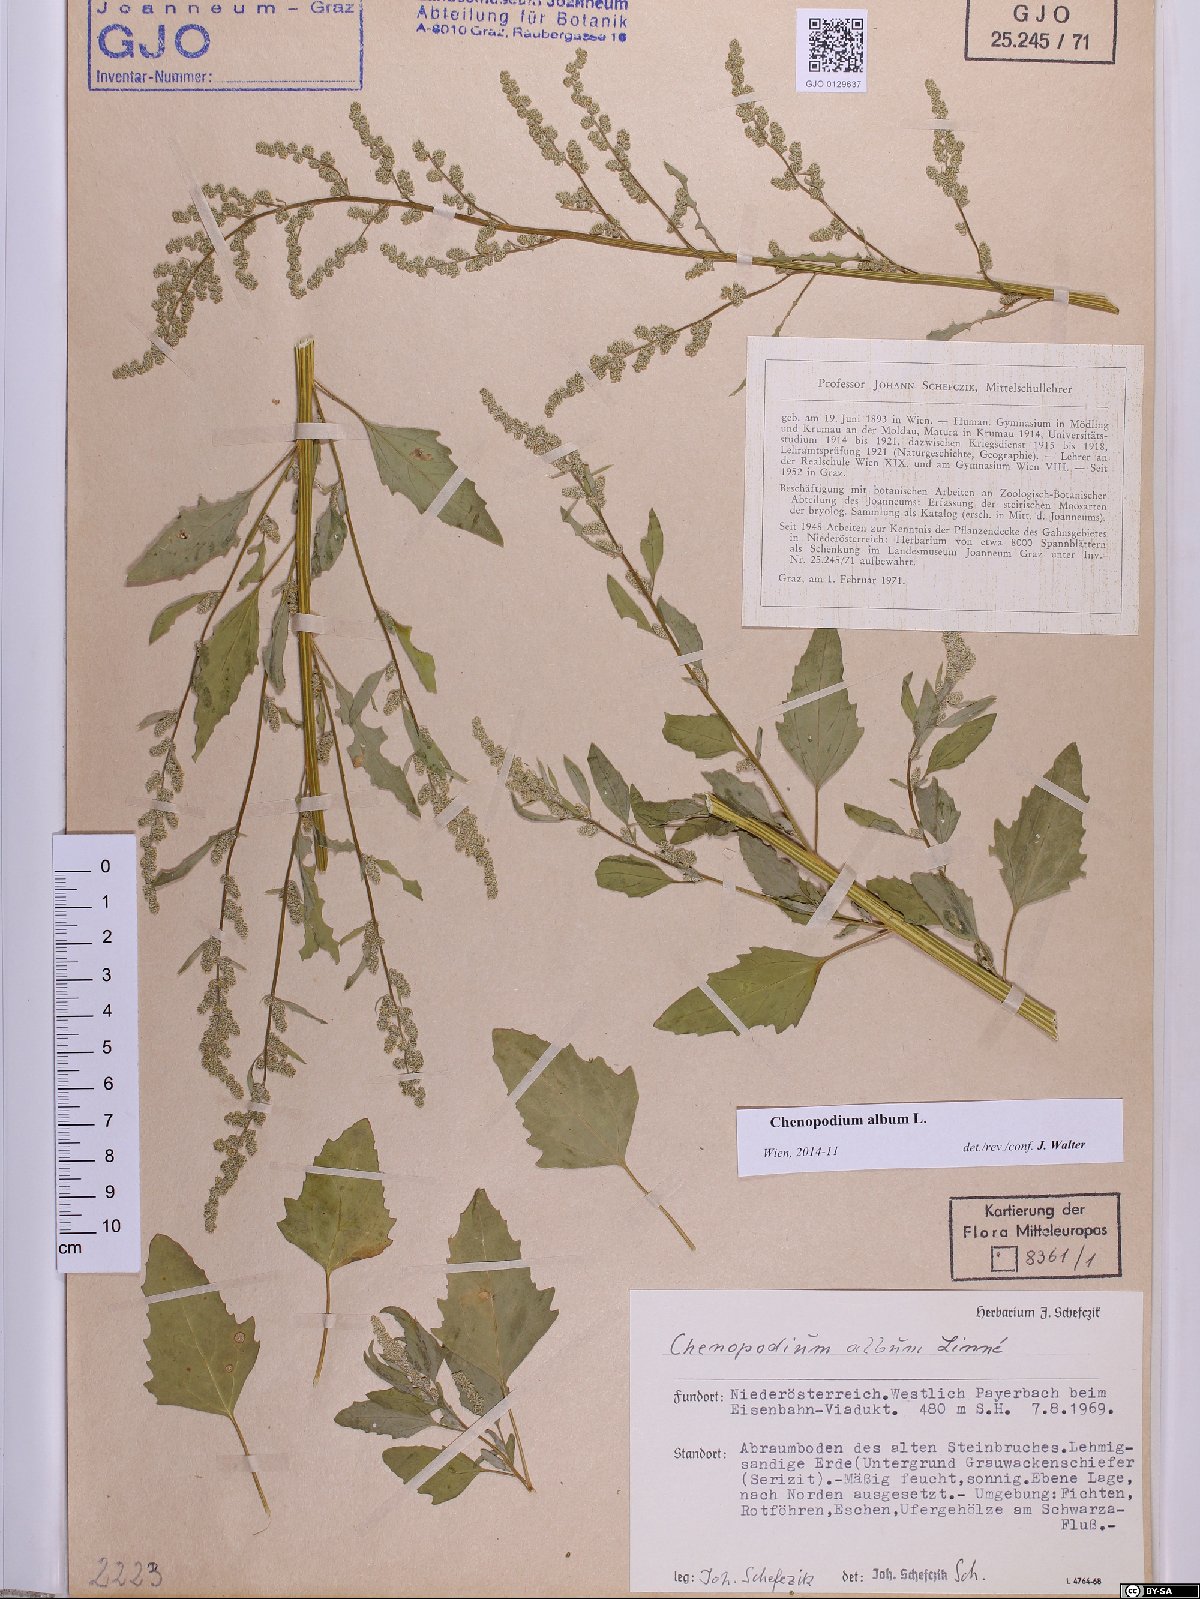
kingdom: Plantae
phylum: Tracheophyta
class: Magnoliopsida
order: Caryophyllales
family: Amaranthaceae
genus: Chenopodium
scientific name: Chenopodium album
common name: Fat-hen
